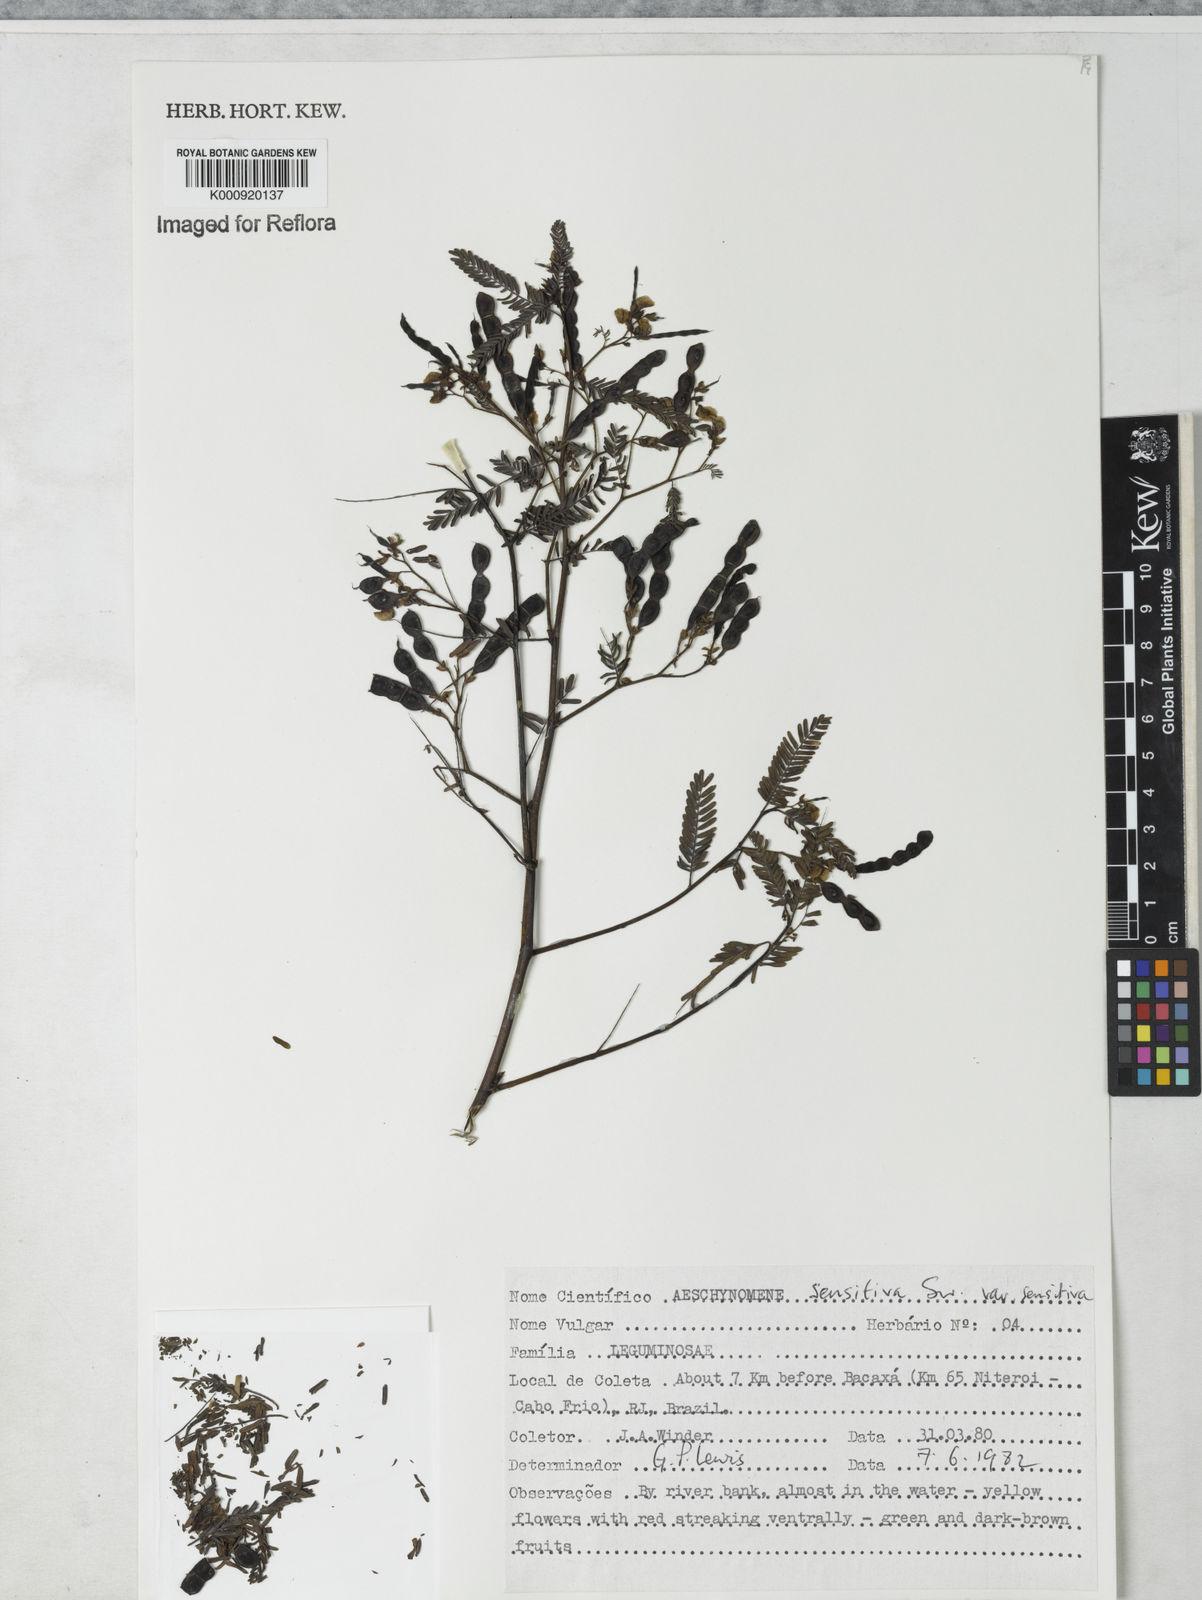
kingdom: Plantae
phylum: Tracheophyta
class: Magnoliopsida
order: Fabales
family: Fabaceae
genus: Aeschynomene
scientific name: Aeschynomene sensitiva
